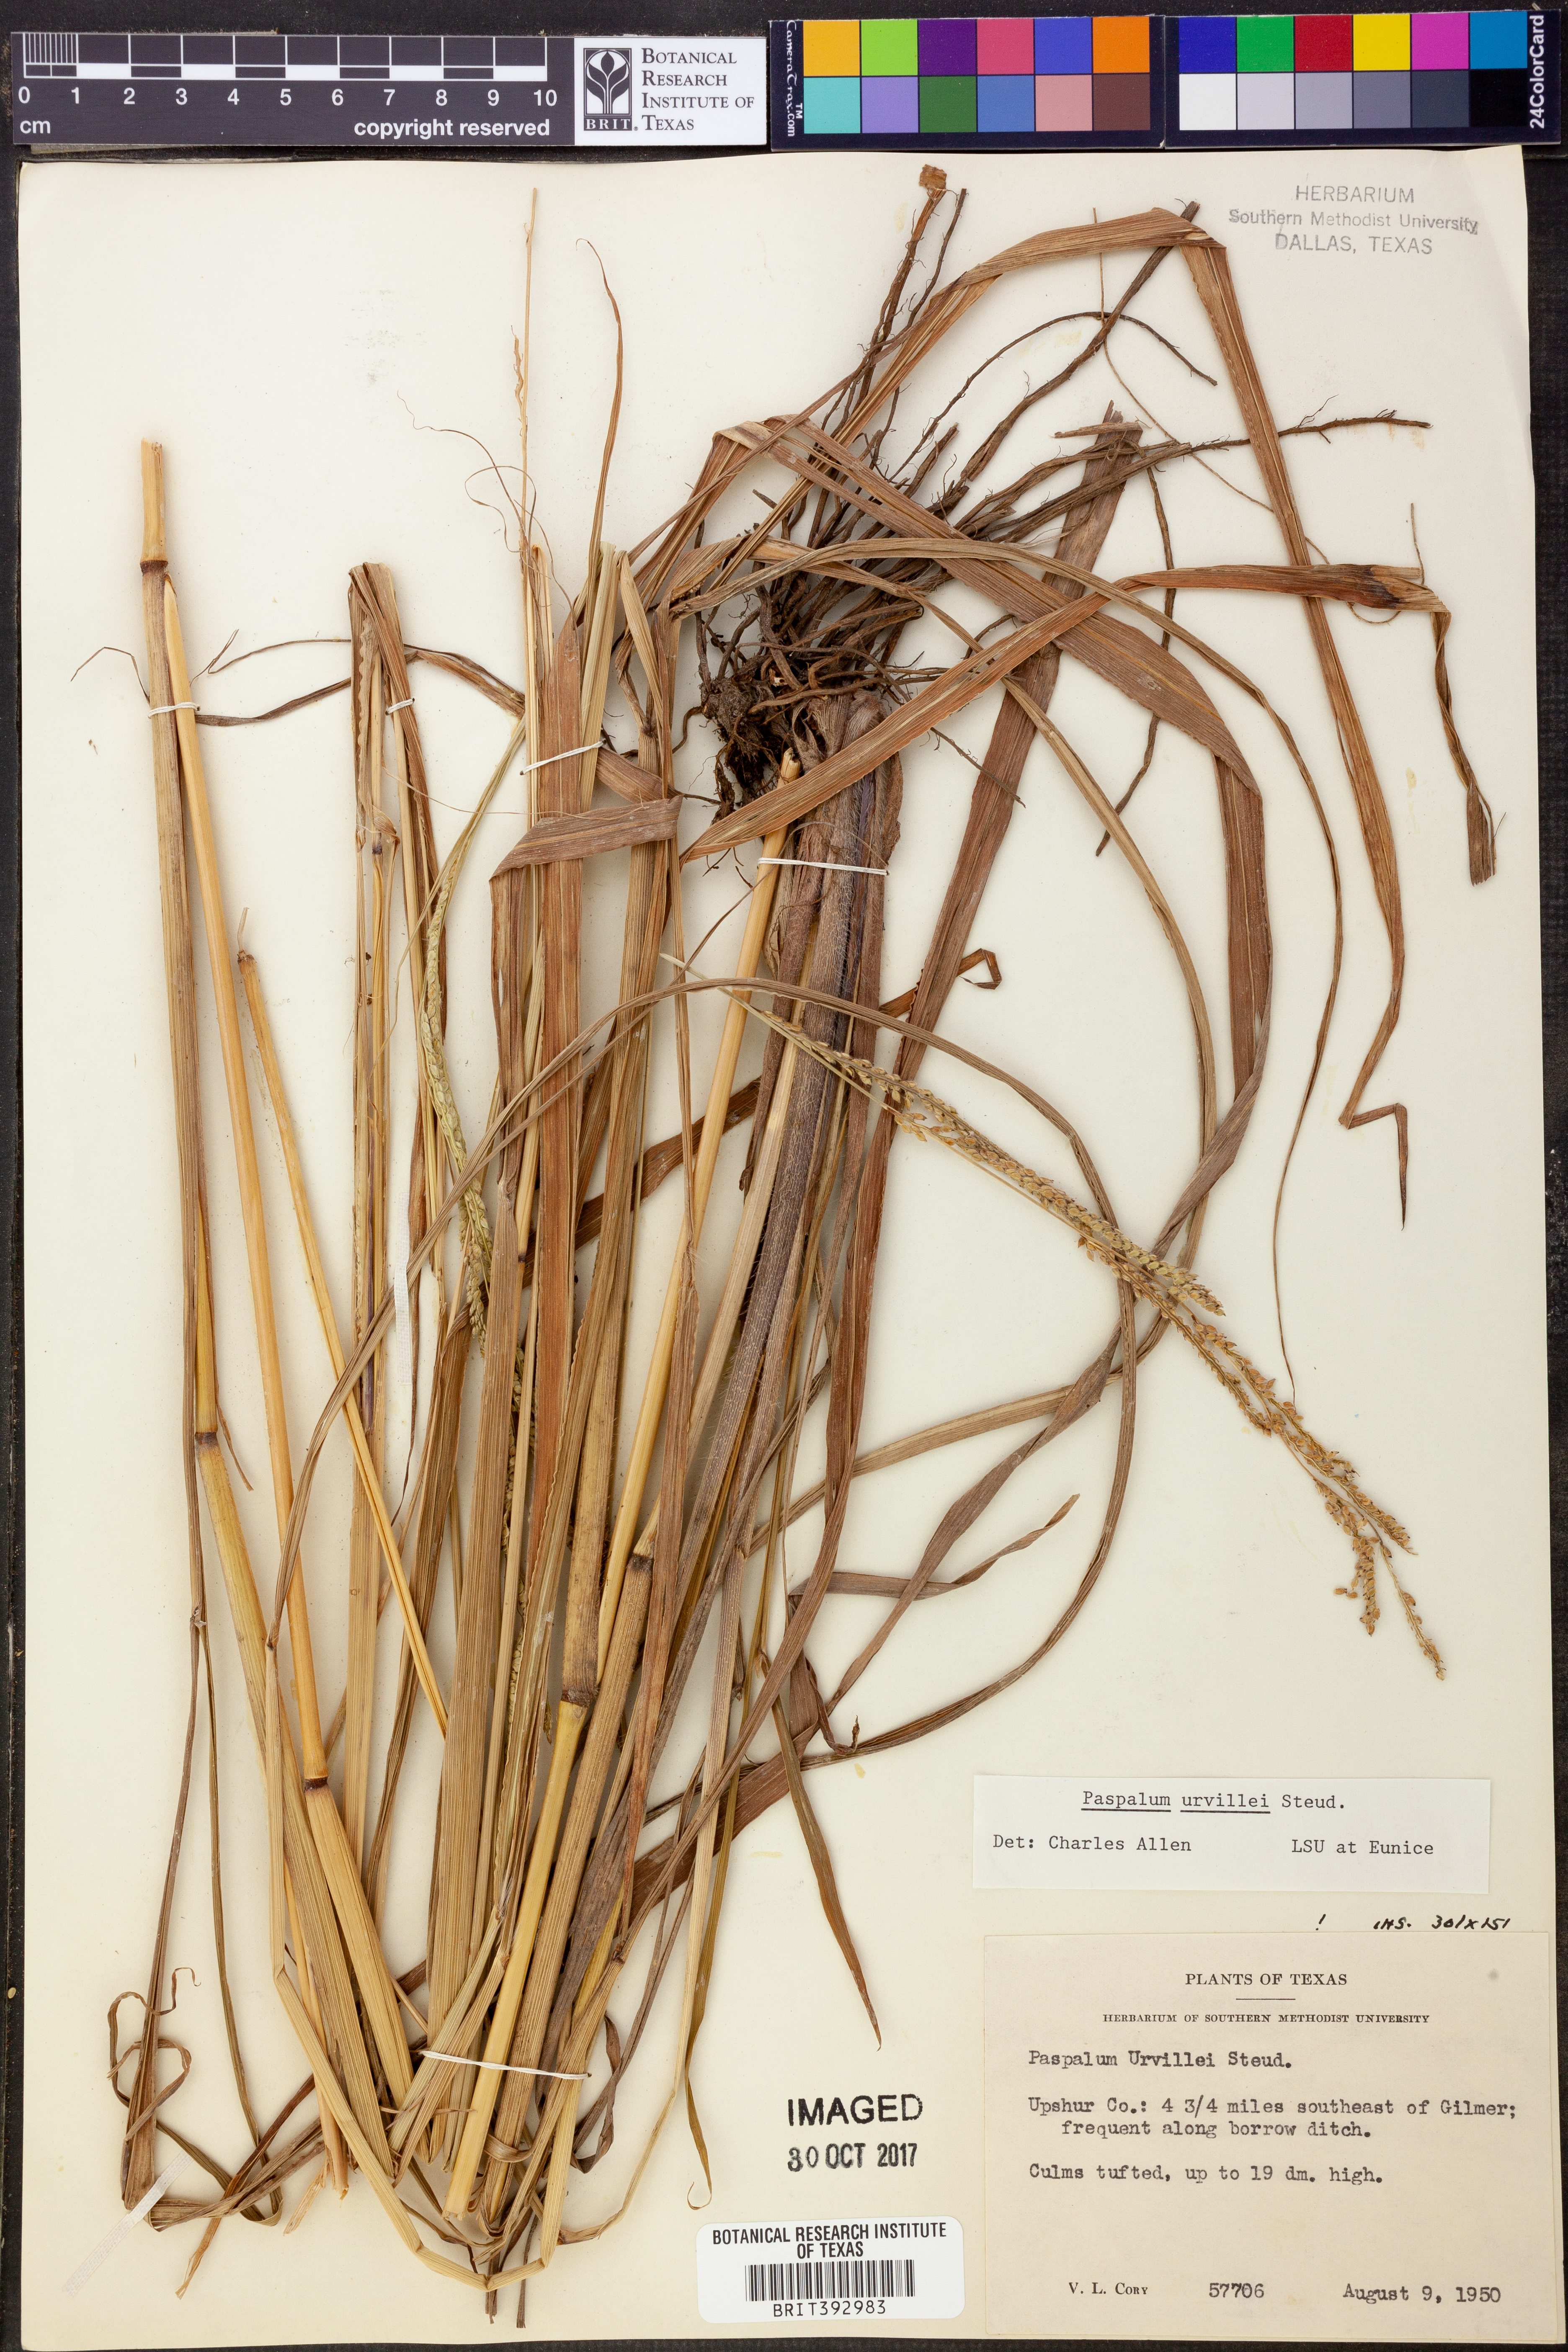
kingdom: Plantae
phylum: Tracheophyta
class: Liliopsida
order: Poales
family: Poaceae
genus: Paspalum
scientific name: Paspalum urvillei
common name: Vasey's grass
